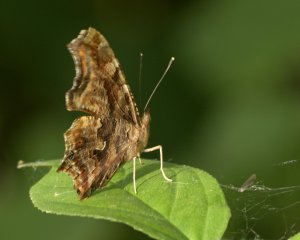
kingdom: Animalia
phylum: Arthropoda
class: Insecta
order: Lepidoptera
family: Nymphalidae
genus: Polygonia
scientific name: Polygonia comma
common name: Eastern Comma
